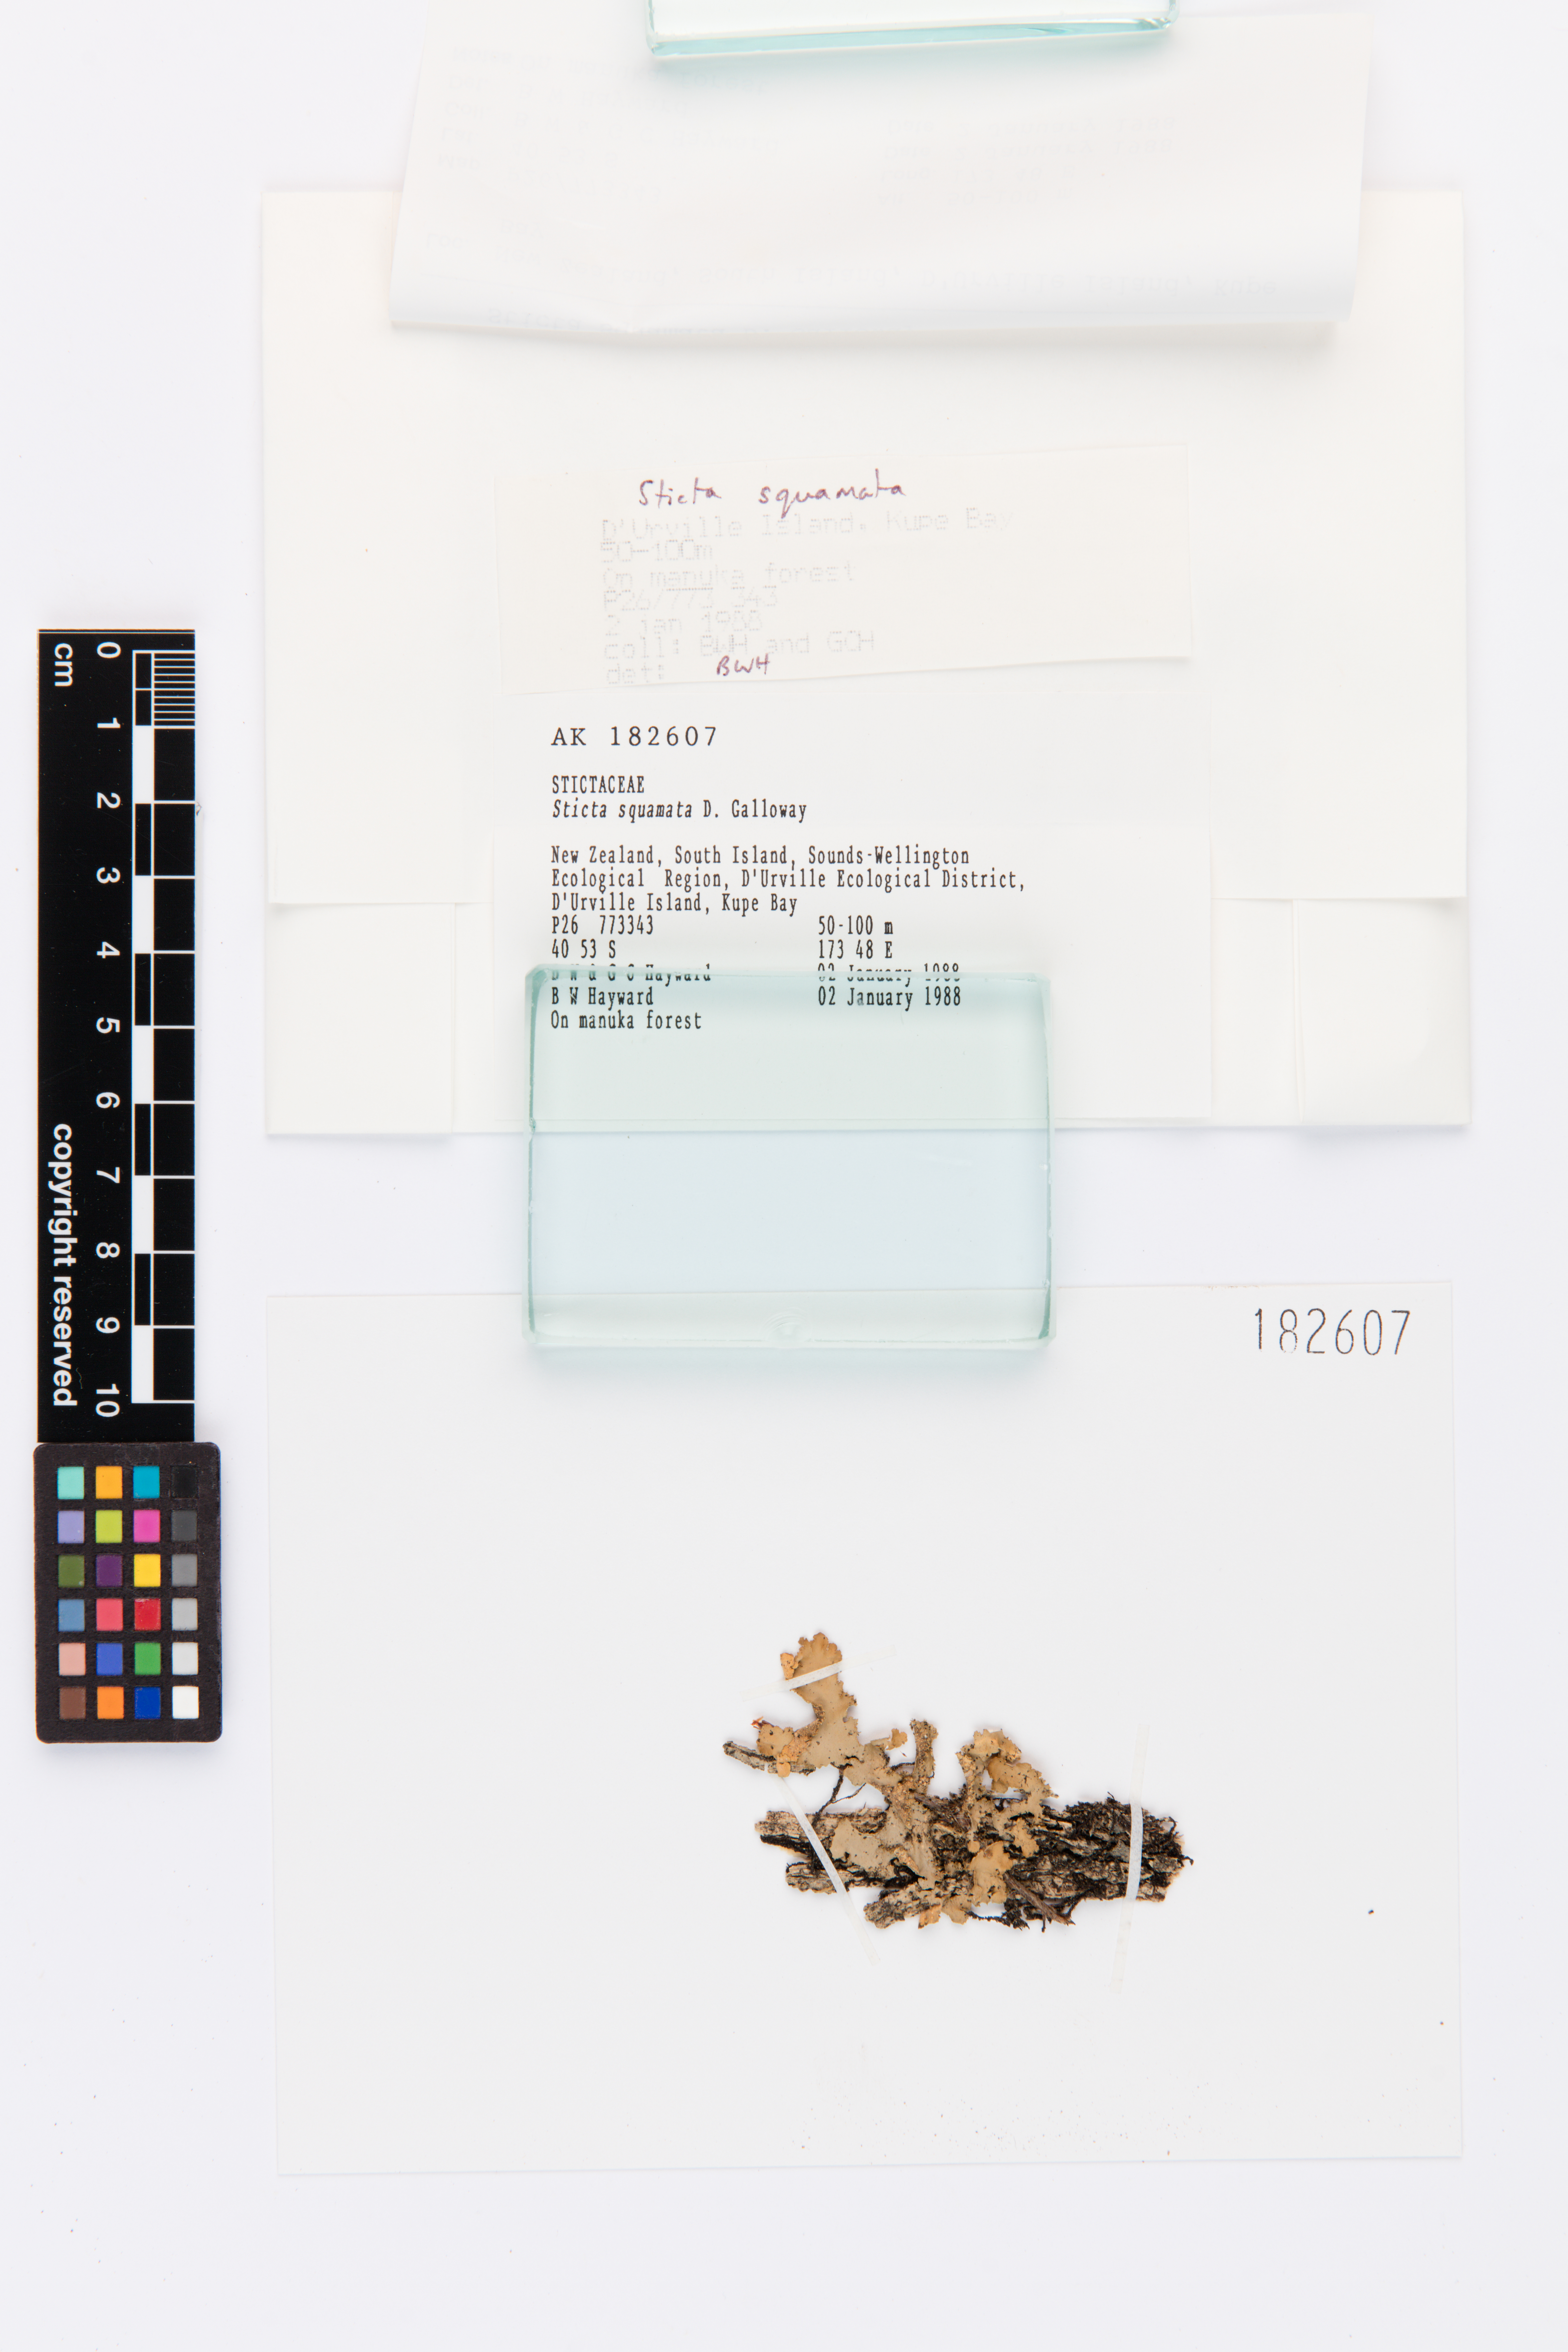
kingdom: Fungi
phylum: Ascomycota
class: Lecanoromycetes
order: Peltigerales
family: Lobariaceae
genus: Sticta
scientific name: Sticta squamata
